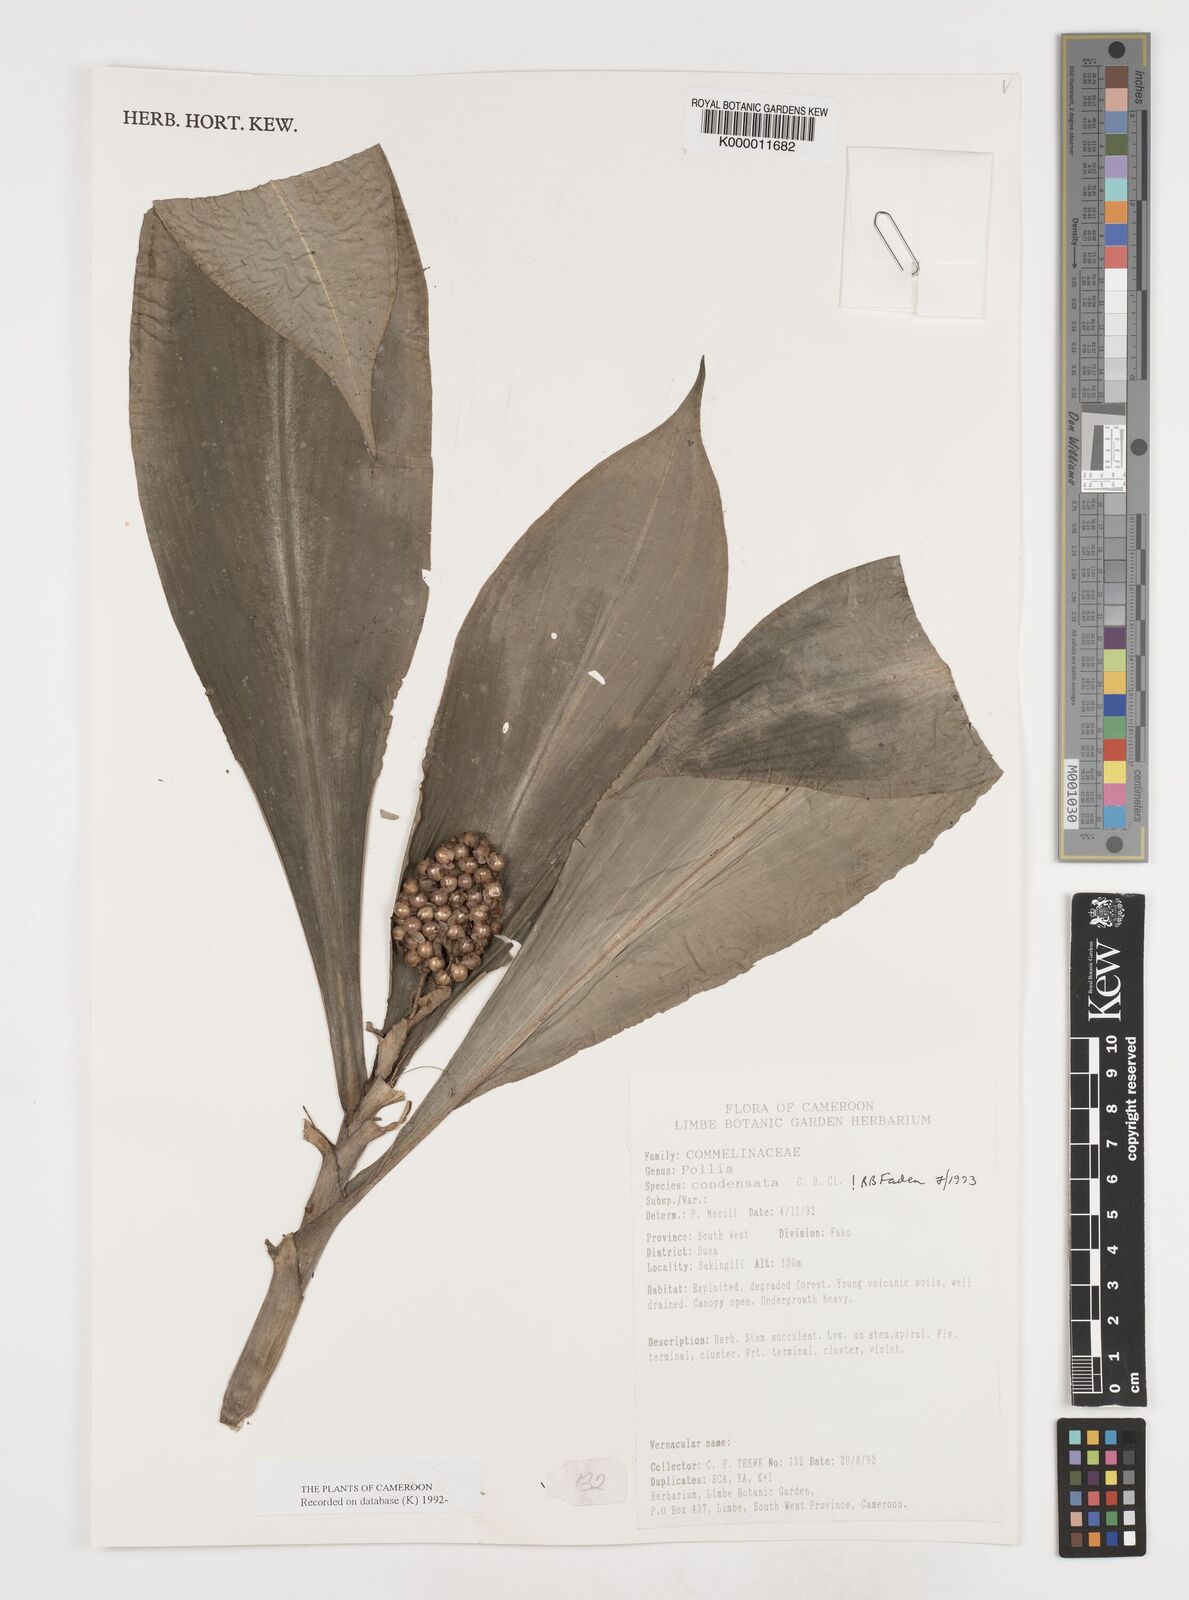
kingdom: Plantae
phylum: Tracheophyta
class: Liliopsida
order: Commelinales
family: Commelinaceae
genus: Pollia
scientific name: Pollia condensata
